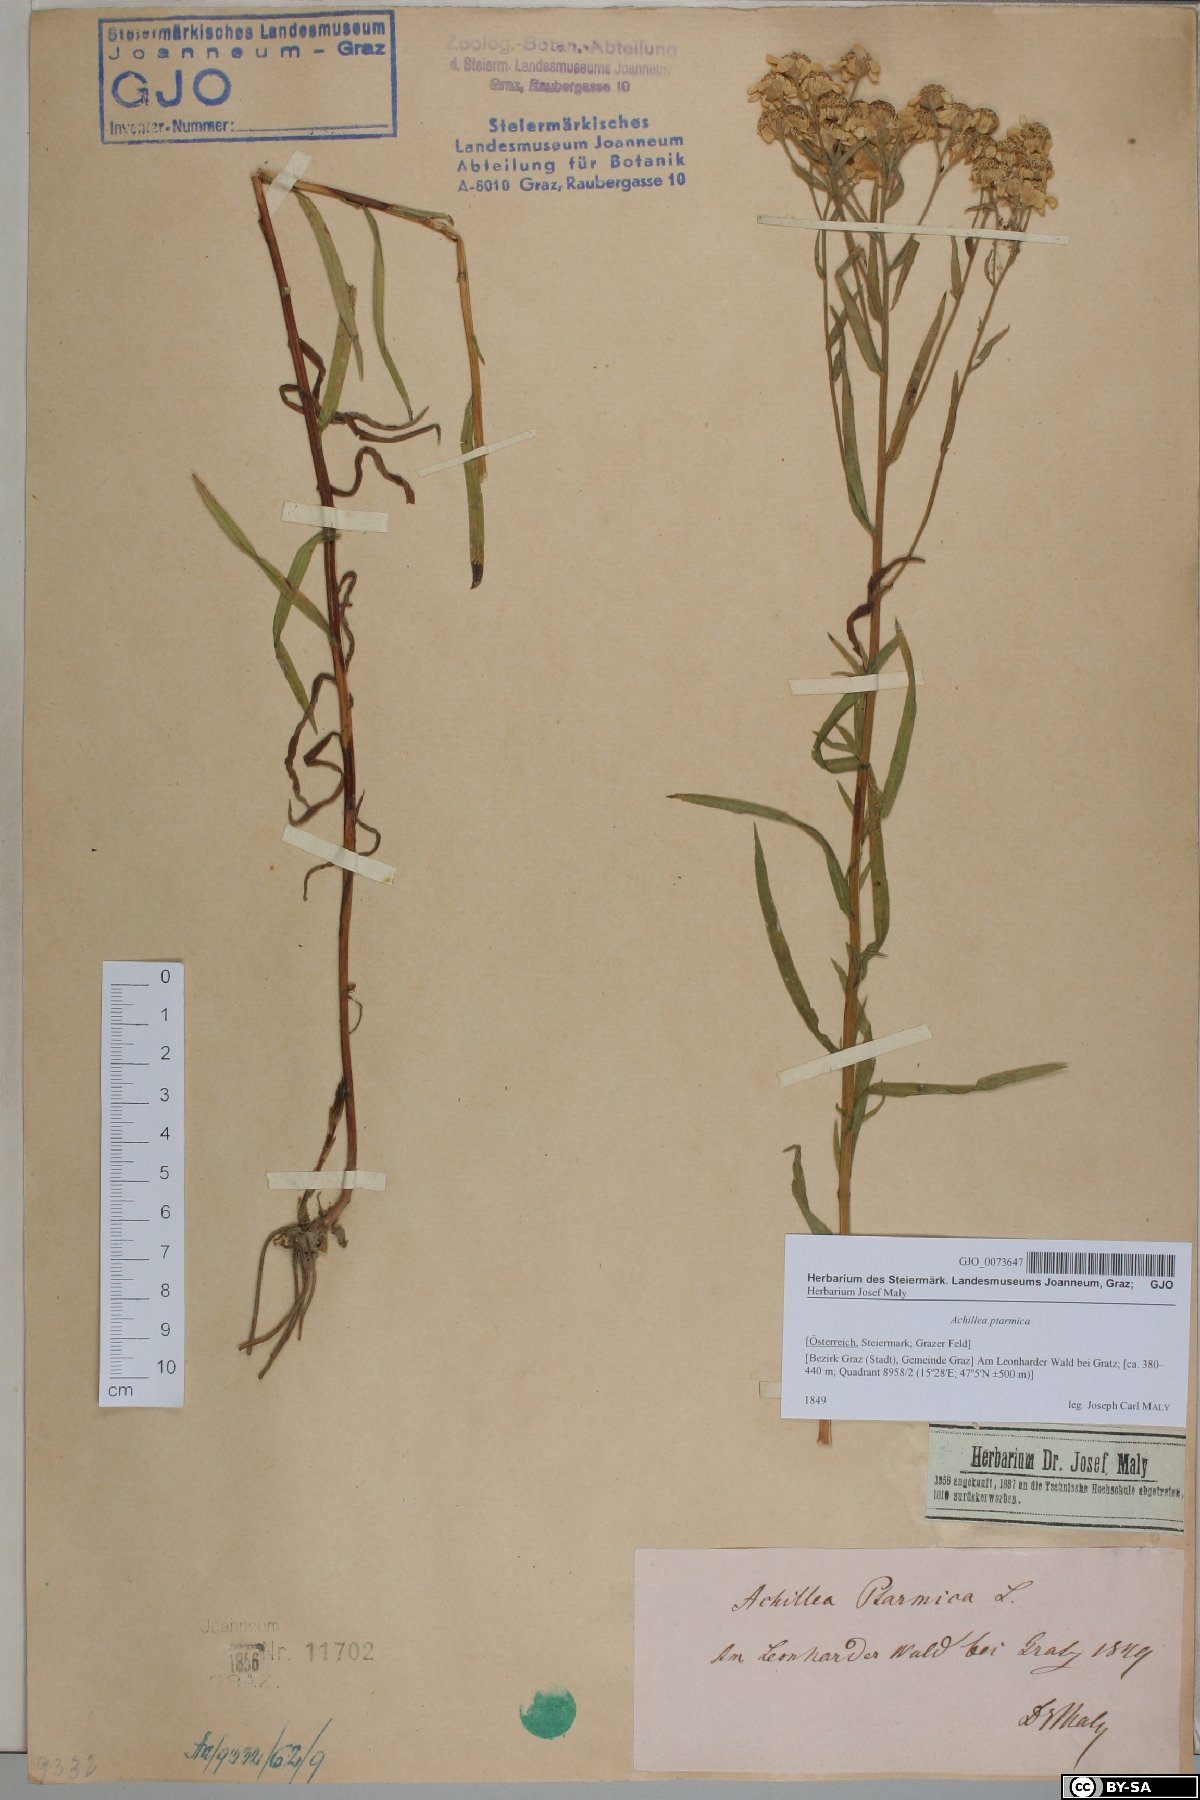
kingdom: Plantae
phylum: Tracheophyta
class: Magnoliopsida
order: Asterales
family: Asteraceae
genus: Achillea
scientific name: Achillea ptarmica
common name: Sneezeweed
